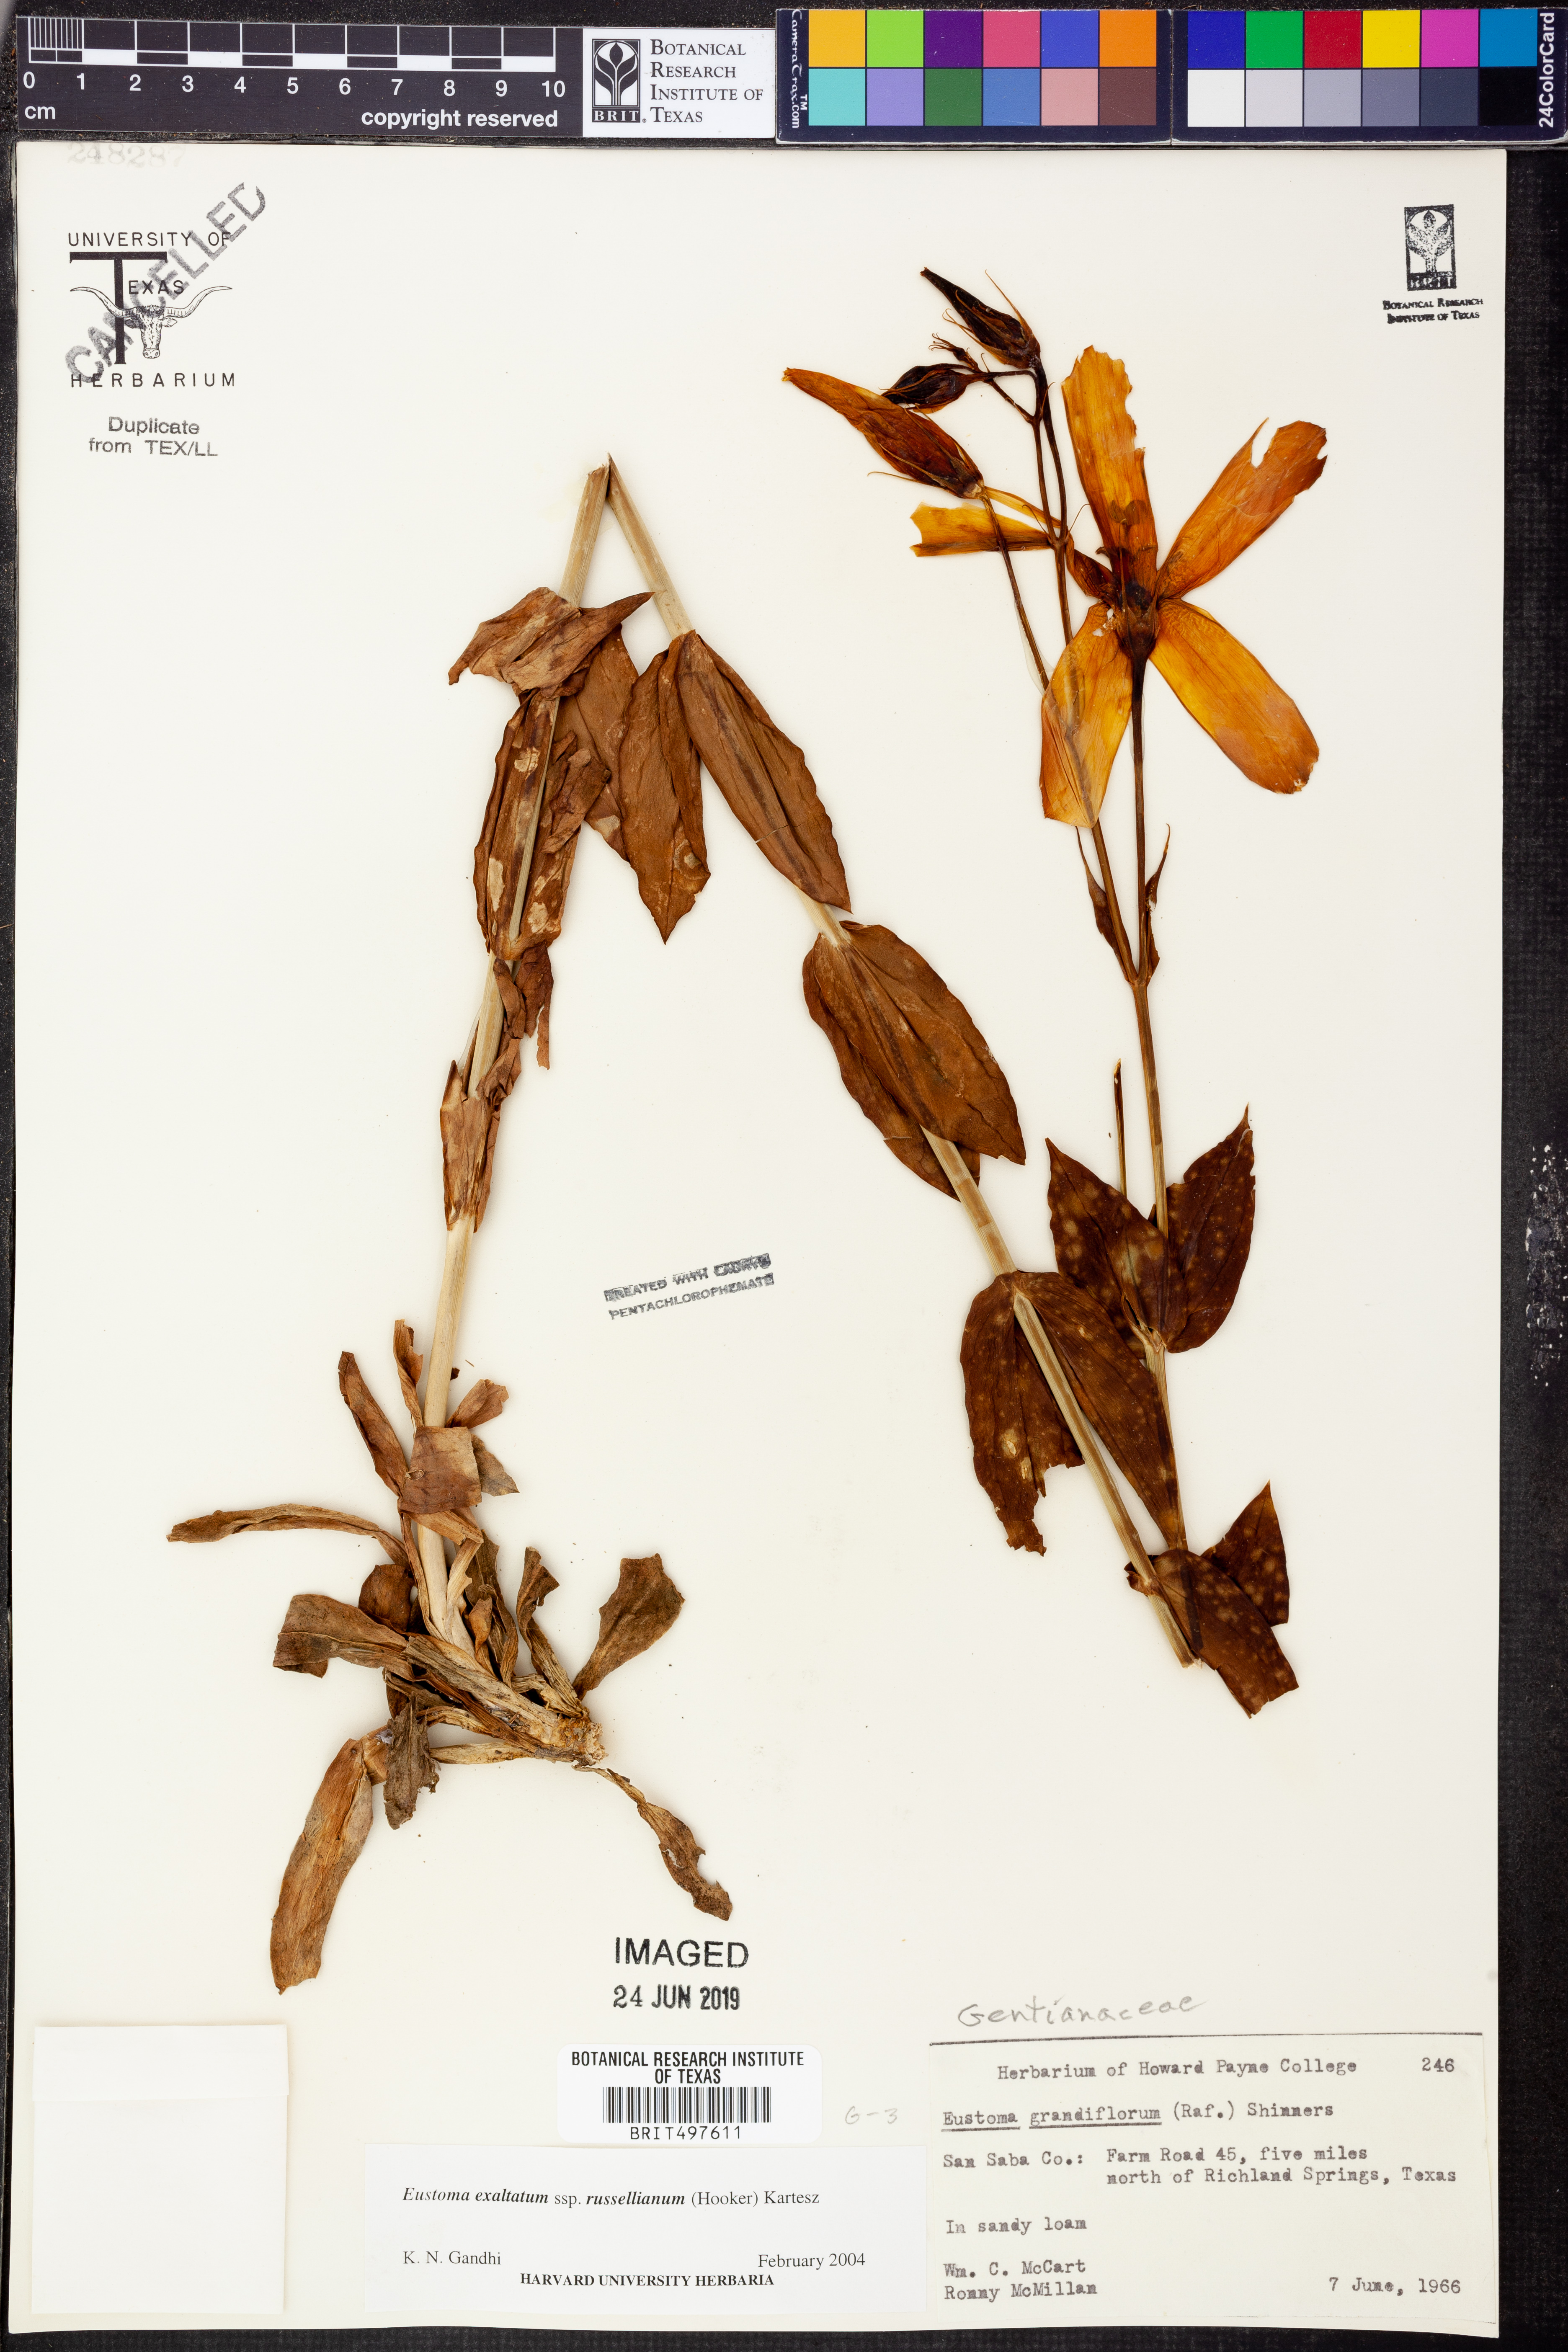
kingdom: Plantae
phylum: Tracheophyta
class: Magnoliopsida
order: Gentianales
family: Gentianaceae
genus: Eustoma
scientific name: Eustoma russellianum
